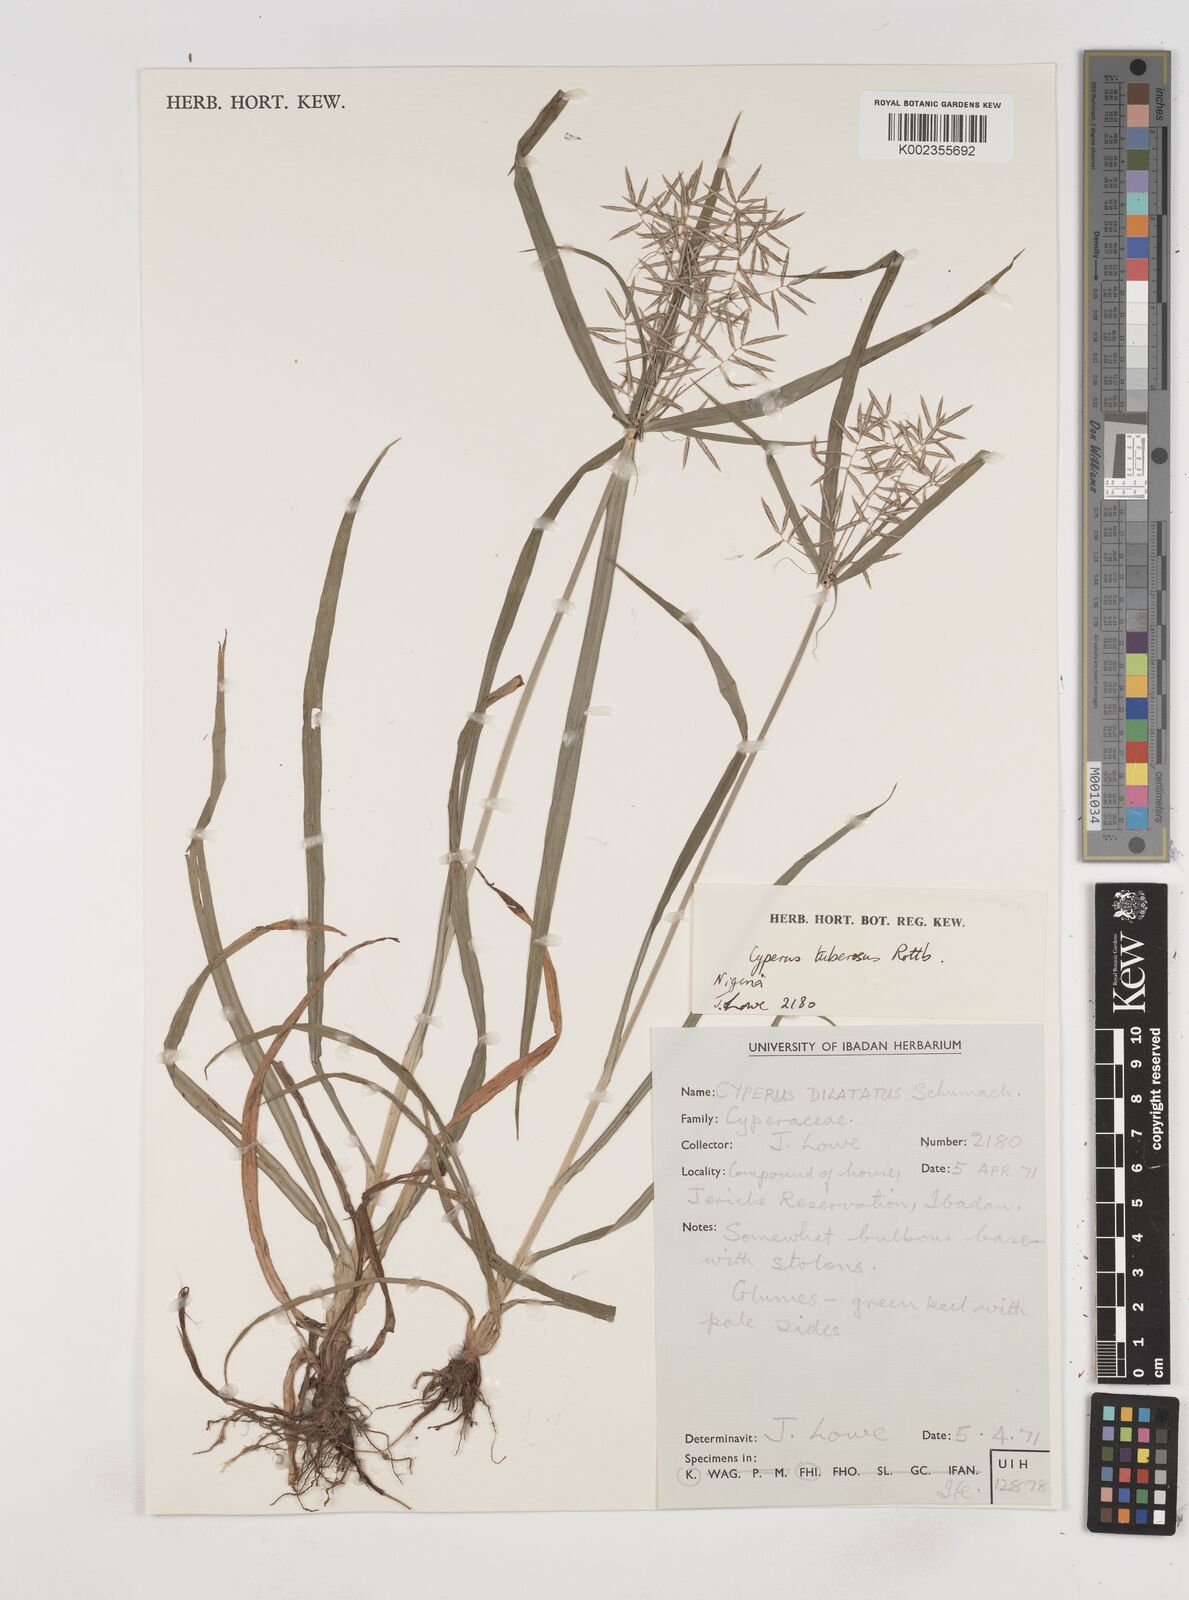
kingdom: Plantae
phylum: Tracheophyta
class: Liliopsida
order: Poales
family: Cyperaceae
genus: Cyperus
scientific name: Cyperus tuberosus
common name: Nut grass
